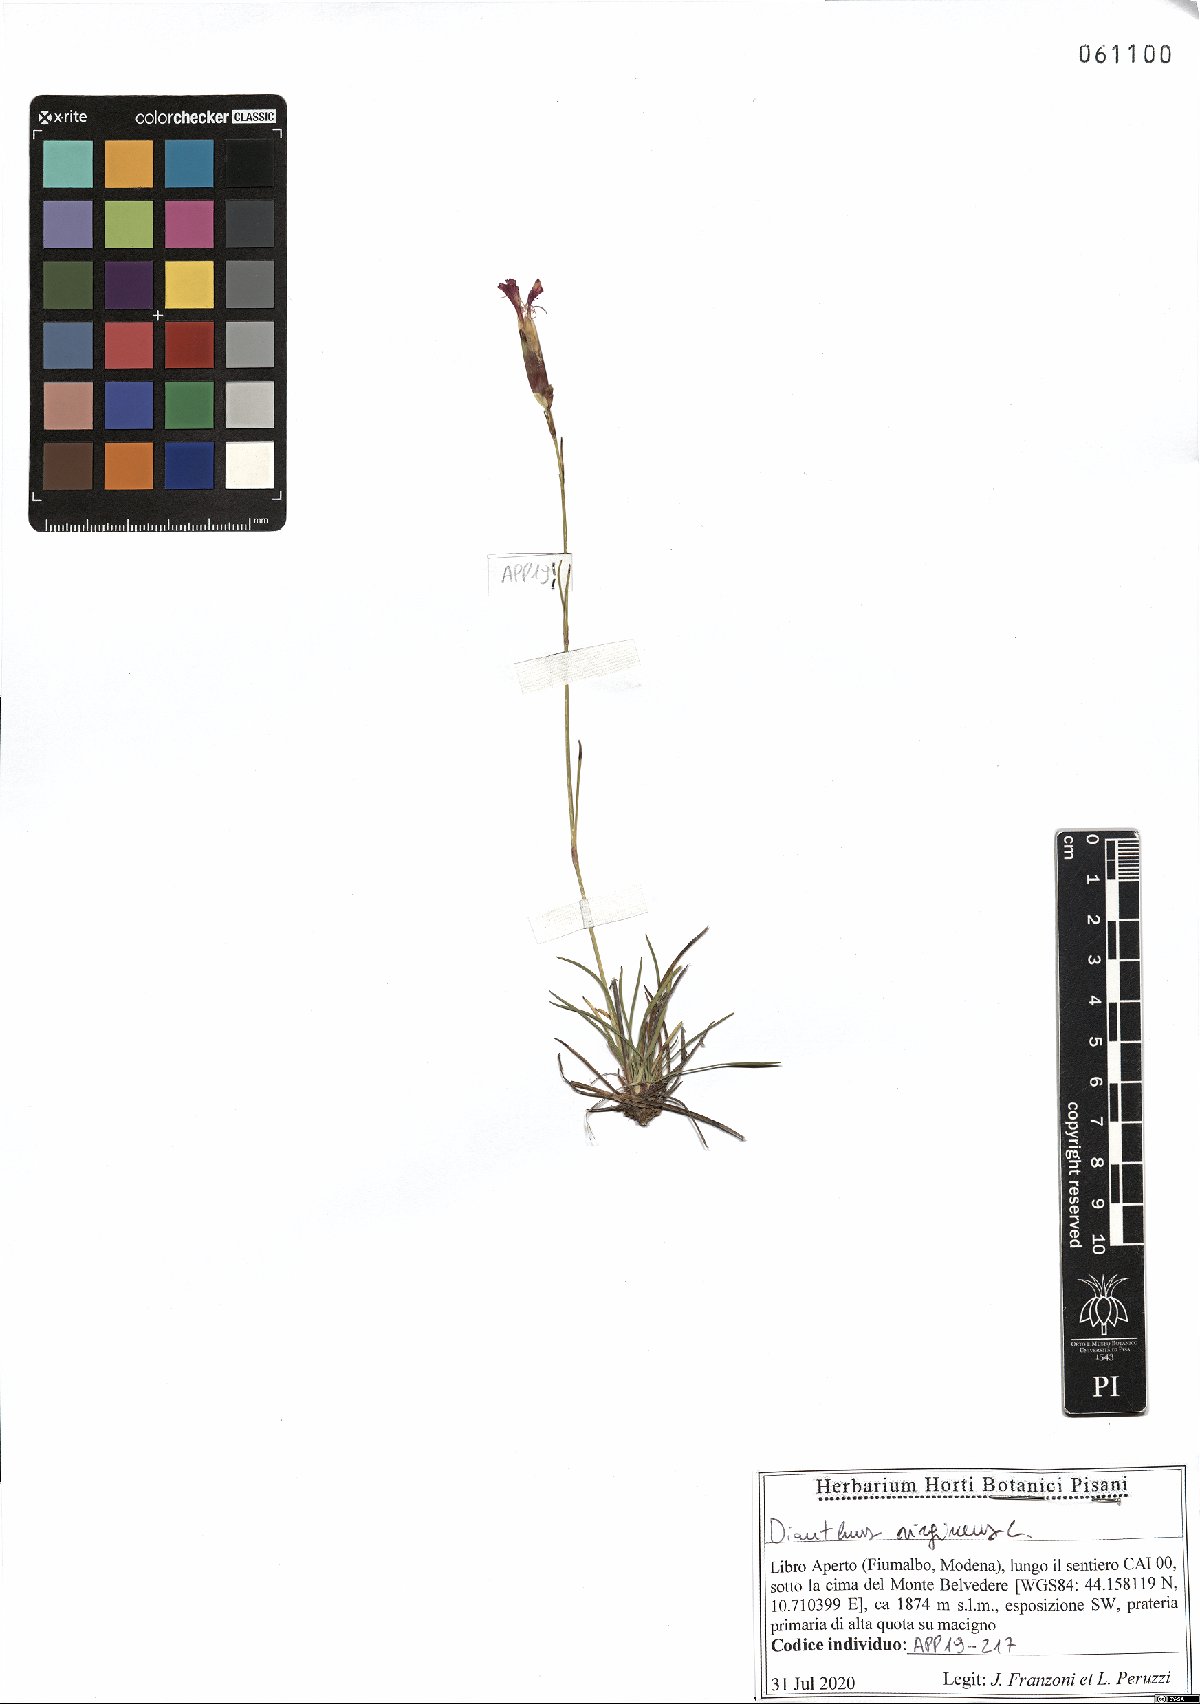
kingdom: Plantae
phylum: Tracheophyta
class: Magnoliopsida
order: Caryophyllales
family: Caryophyllaceae
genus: Dianthus
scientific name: Dianthus virgineus
